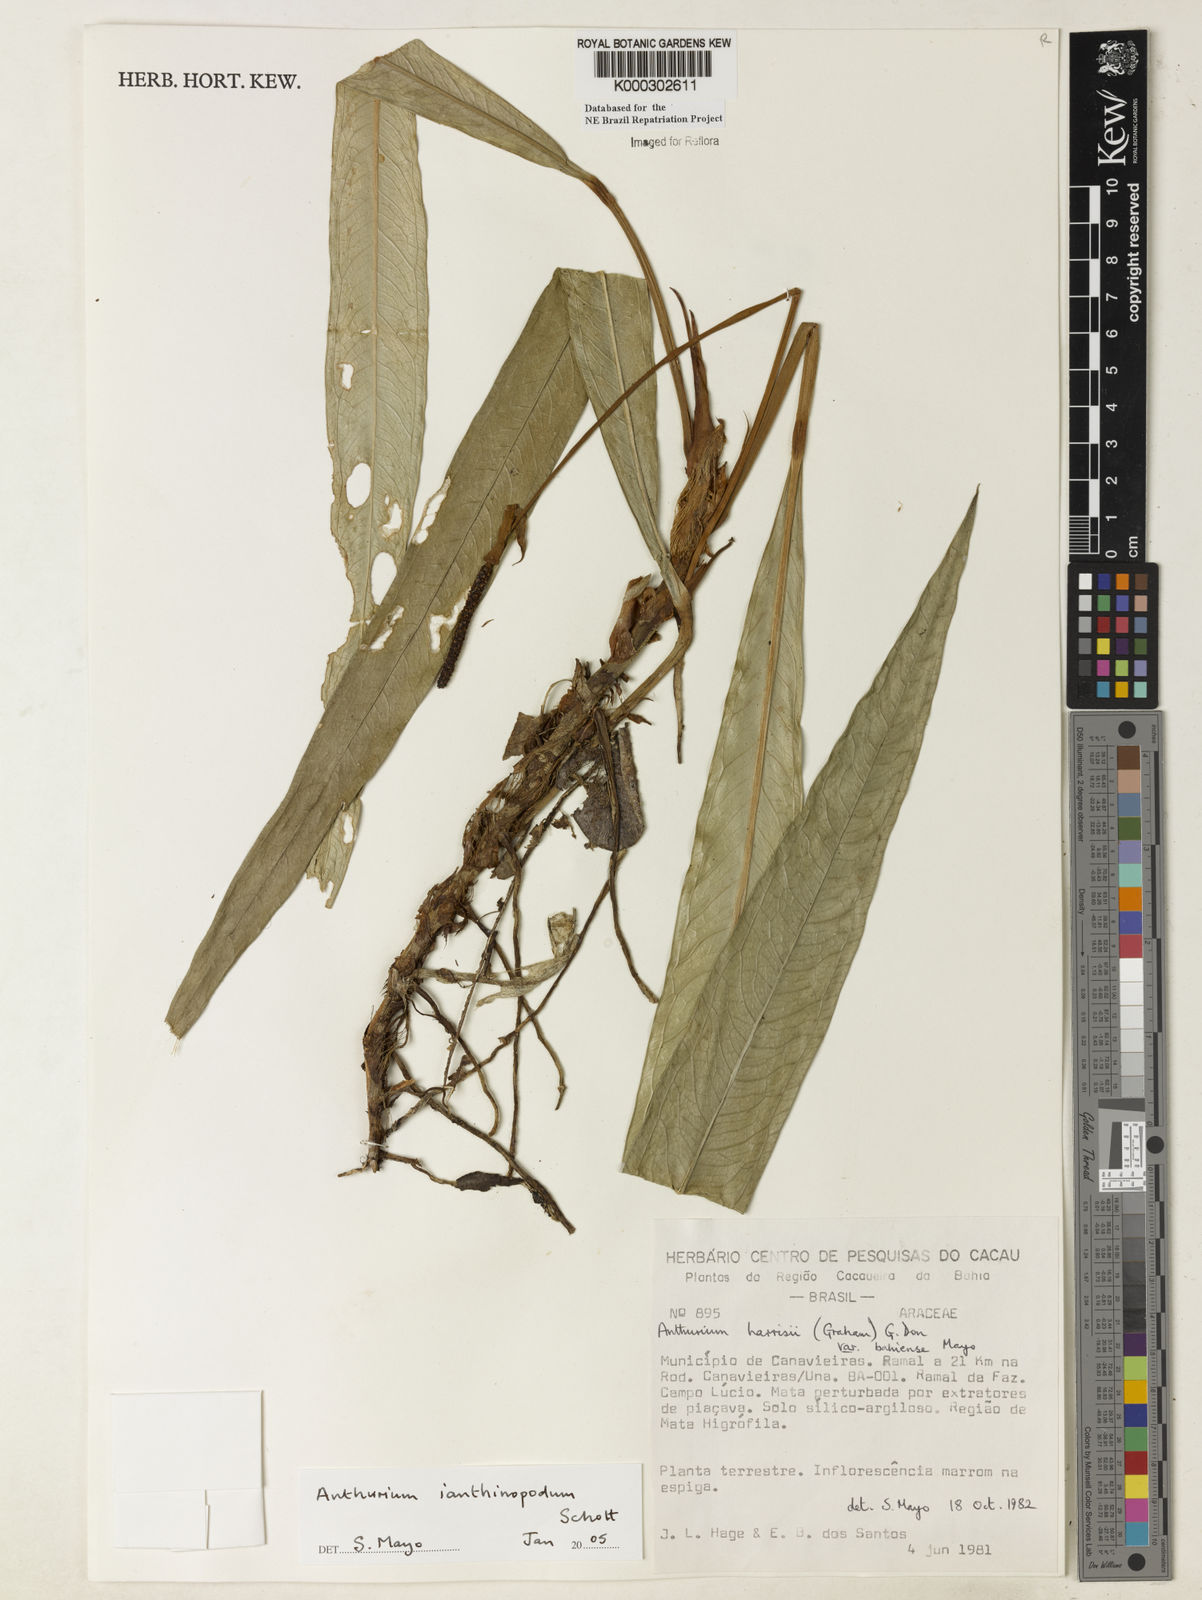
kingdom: Plantae
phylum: Tracheophyta
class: Liliopsida
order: Alismatales
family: Araceae
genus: Anthurium
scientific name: Anthurium ianthinopodum
